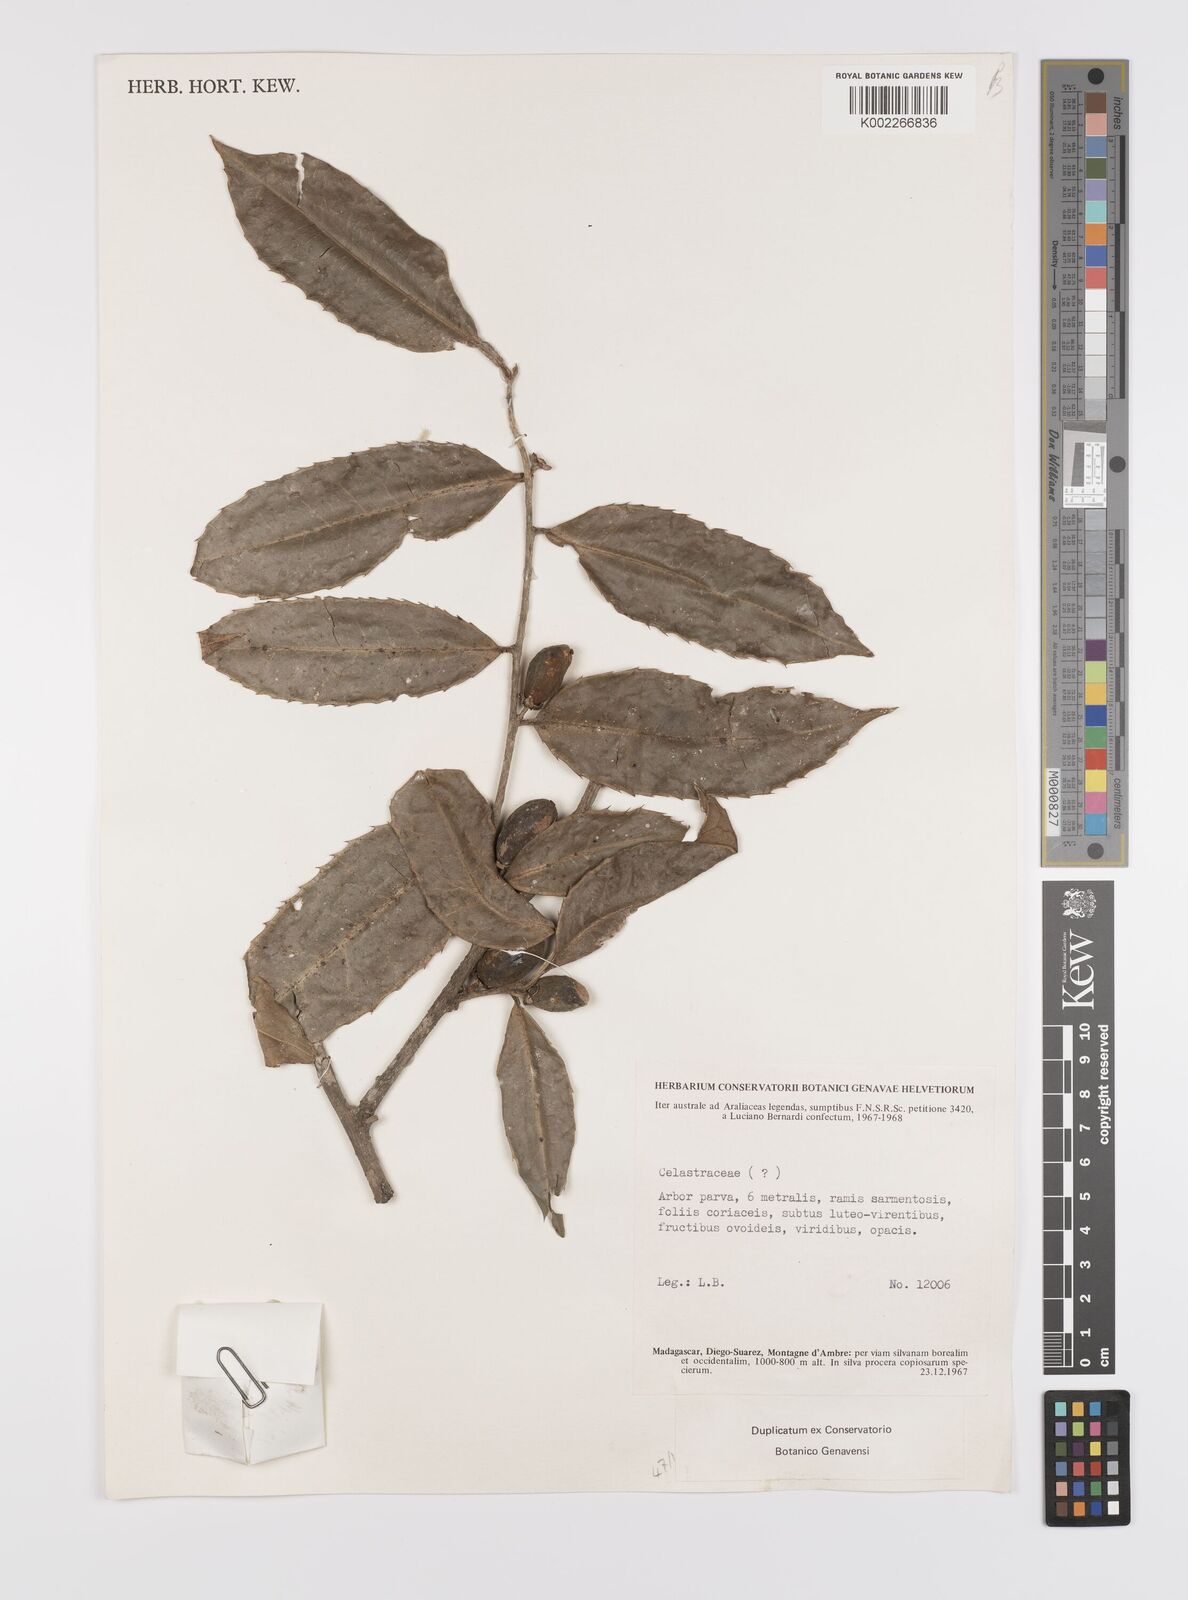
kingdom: Plantae
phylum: Tracheophyta
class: Magnoliopsida
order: Celastrales
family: Celastraceae
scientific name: Celastraceae
